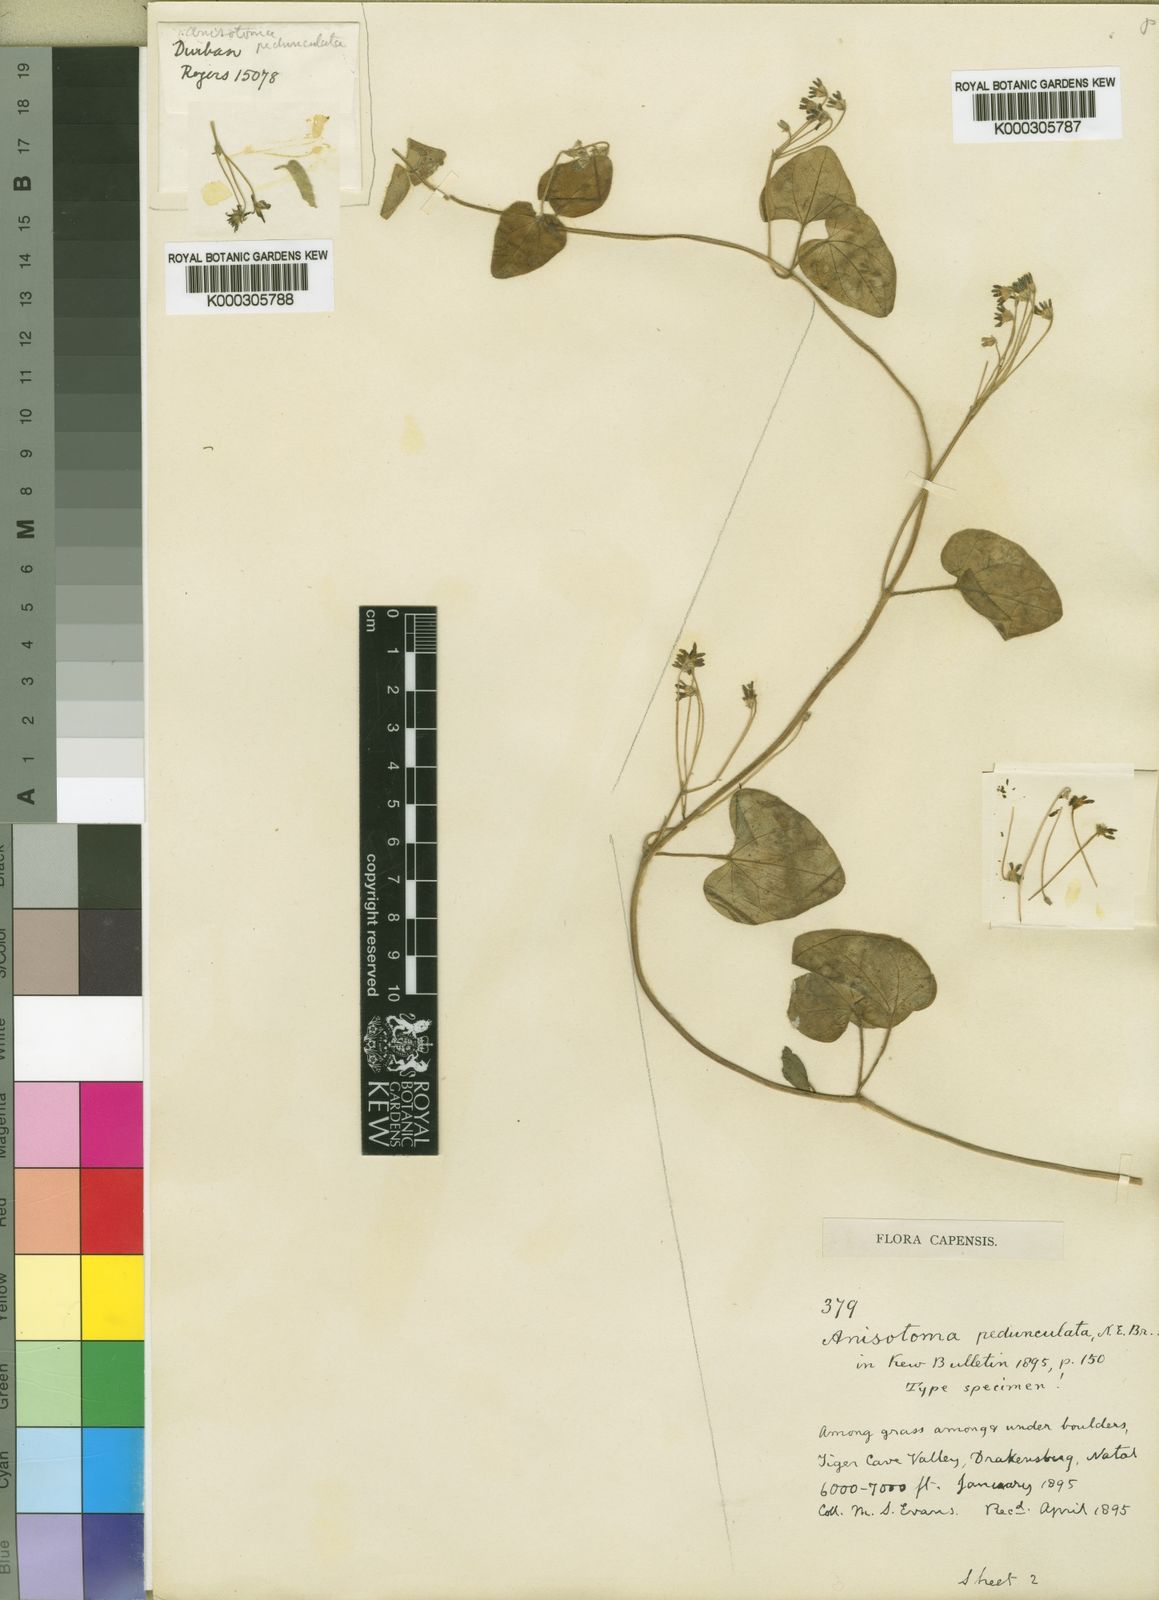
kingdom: Plantae
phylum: Tracheophyta
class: Magnoliopsida
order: Gentianales
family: Apocynaceae
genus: Anisotoma
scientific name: Anisotoma pedunculata
